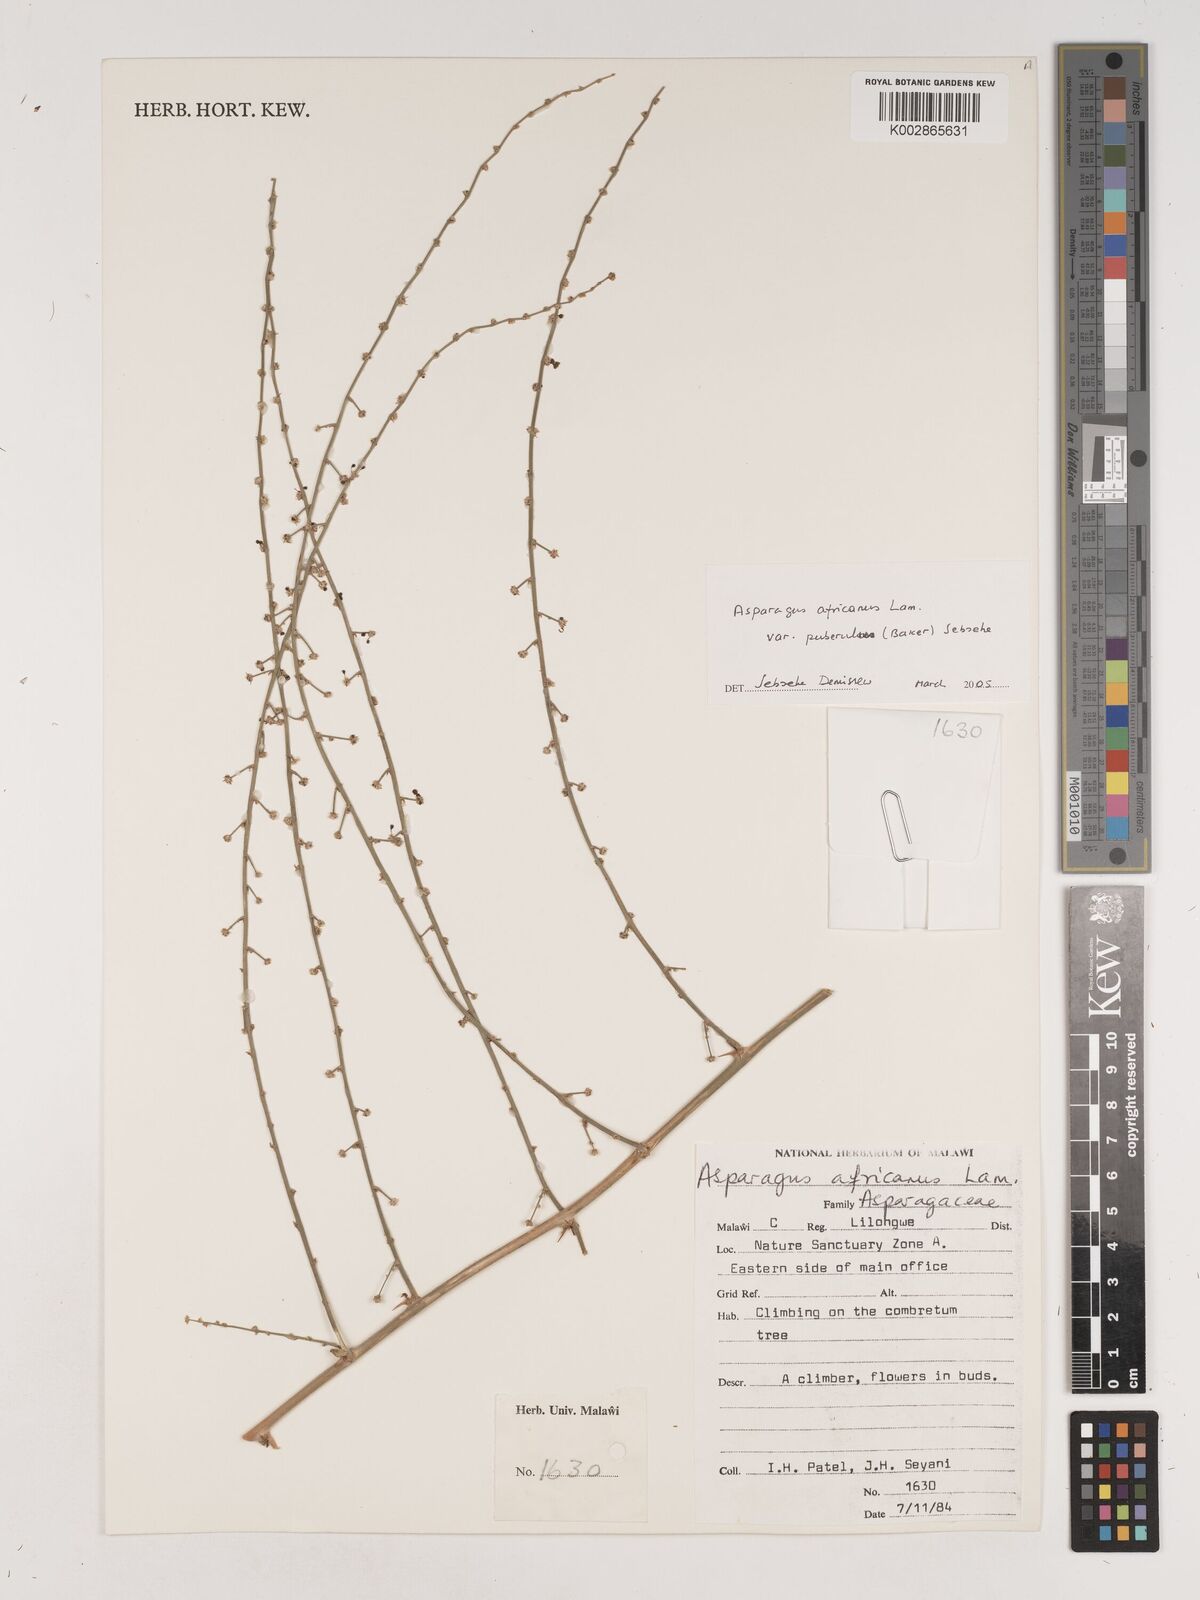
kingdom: Plantae
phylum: Tracheophyta
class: Liliopsida
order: Asparagales
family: Asparagaceae
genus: Asparagus
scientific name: Asparagus africanus
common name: Asparagus-fern
